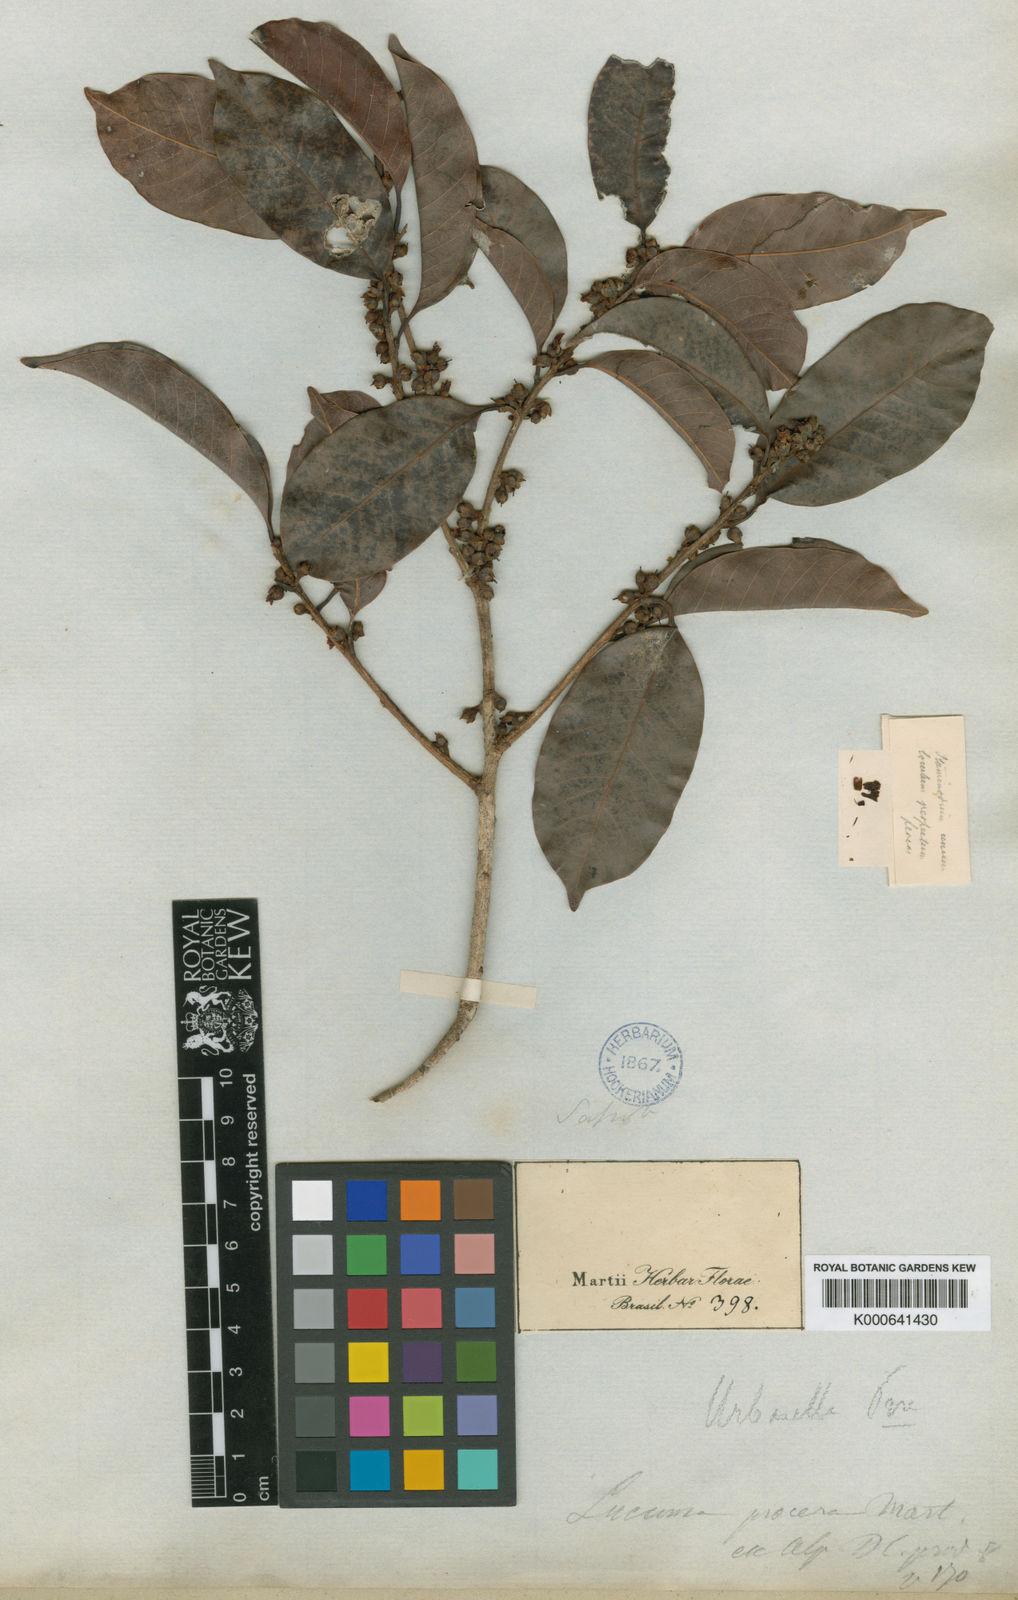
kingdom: Plantae
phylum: Tracheophyta
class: Magnoliopsida
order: Ericales
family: Sapotaceae
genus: Pouteria
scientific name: Pouteria procera
